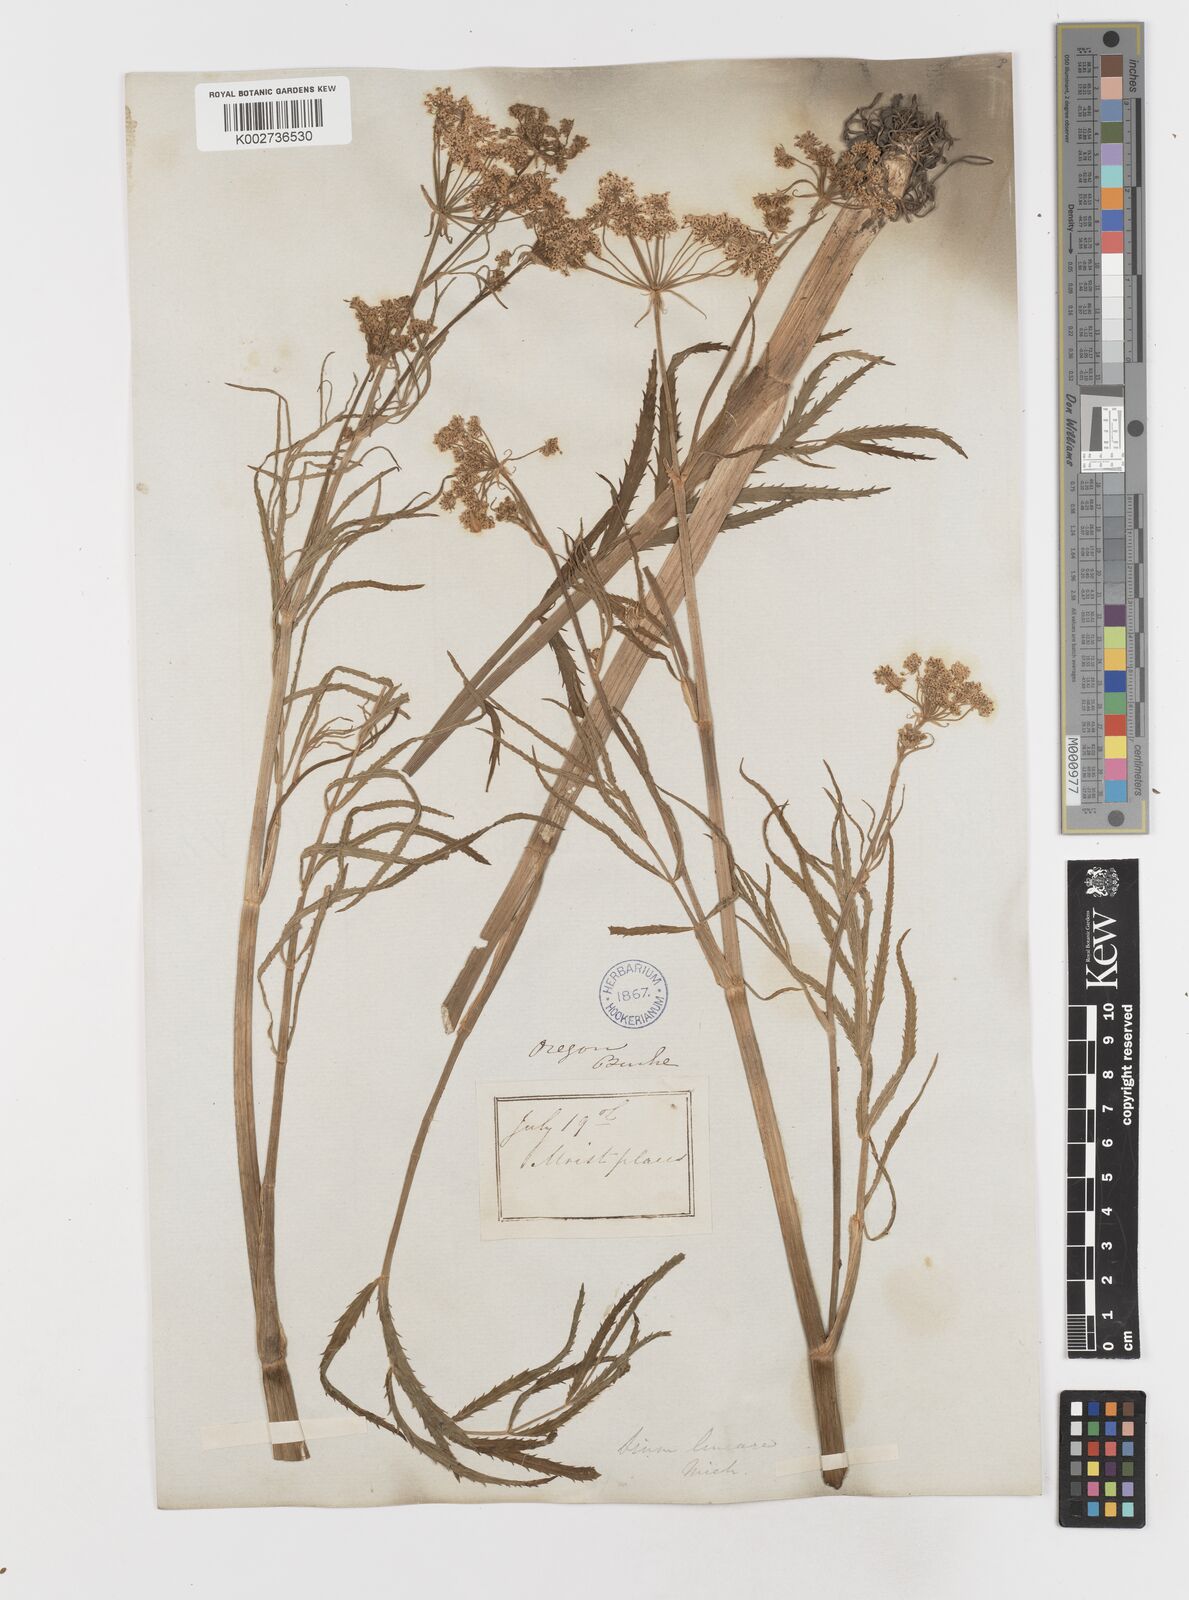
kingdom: Plantae
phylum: Tracheophyta
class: Magnoliopsida
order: Apiales
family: Apiaceae
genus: Sium
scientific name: Sium suave
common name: Hemlock water-parsnip
